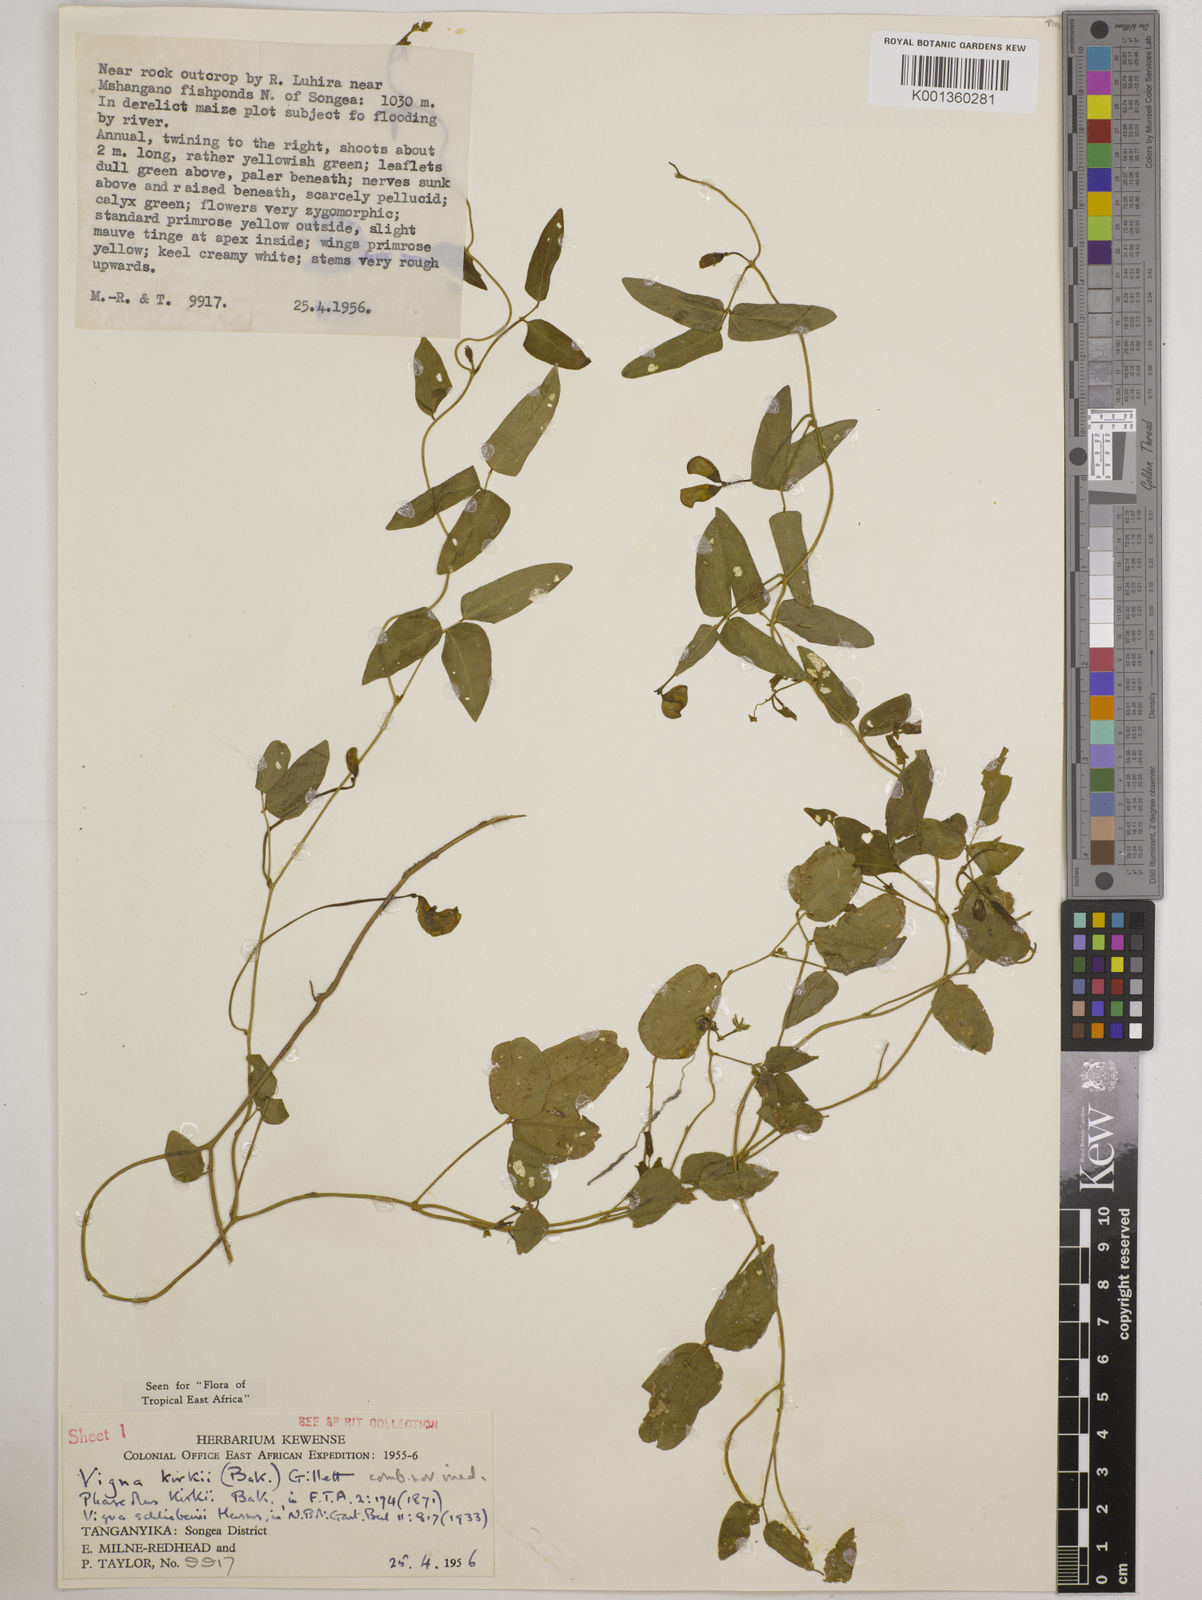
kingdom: Plantae
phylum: Tracheophyta
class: Magnoliopsida
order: Fabales
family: Fabaceae
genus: Vigna
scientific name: Vigna kirkii
